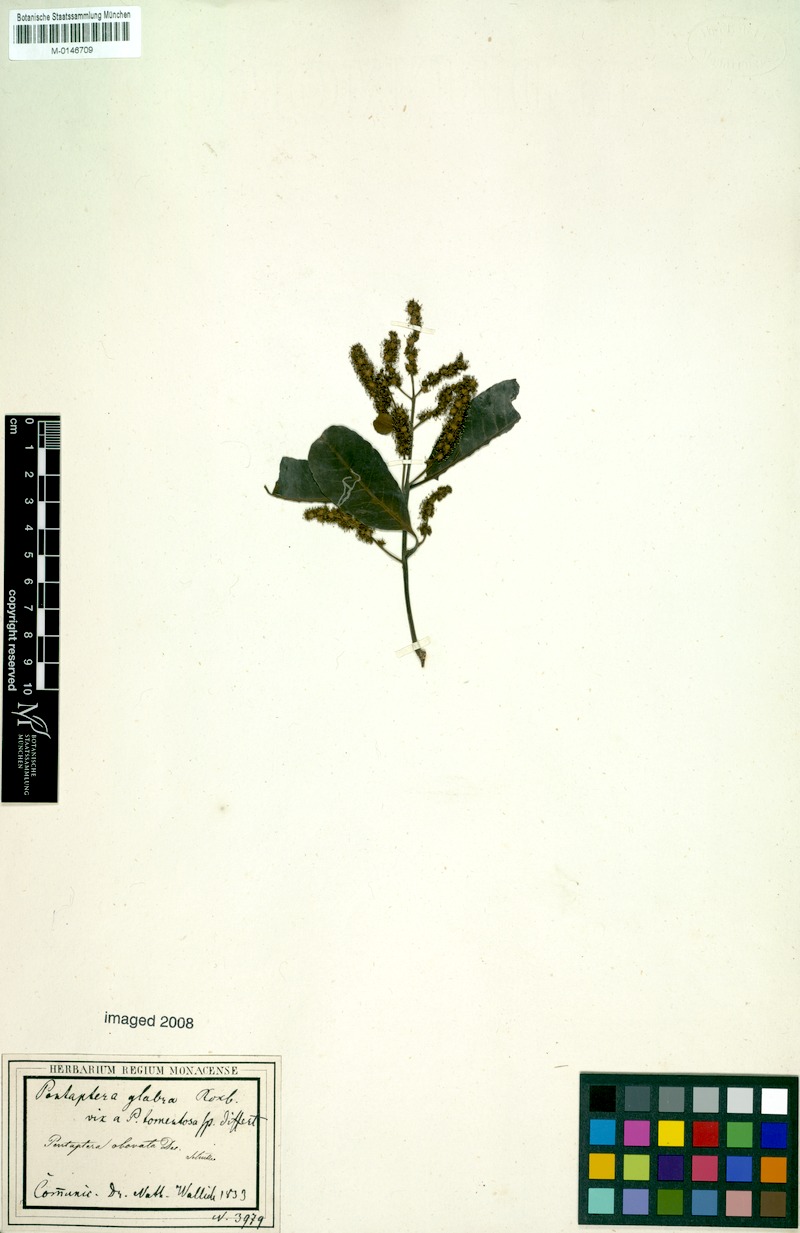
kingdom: Plantae
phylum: Tracheophyta
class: Magnoliopsida
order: Myrtales
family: Combretaceae
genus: Terminalia
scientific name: Terminalia arjuna
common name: Arjun
